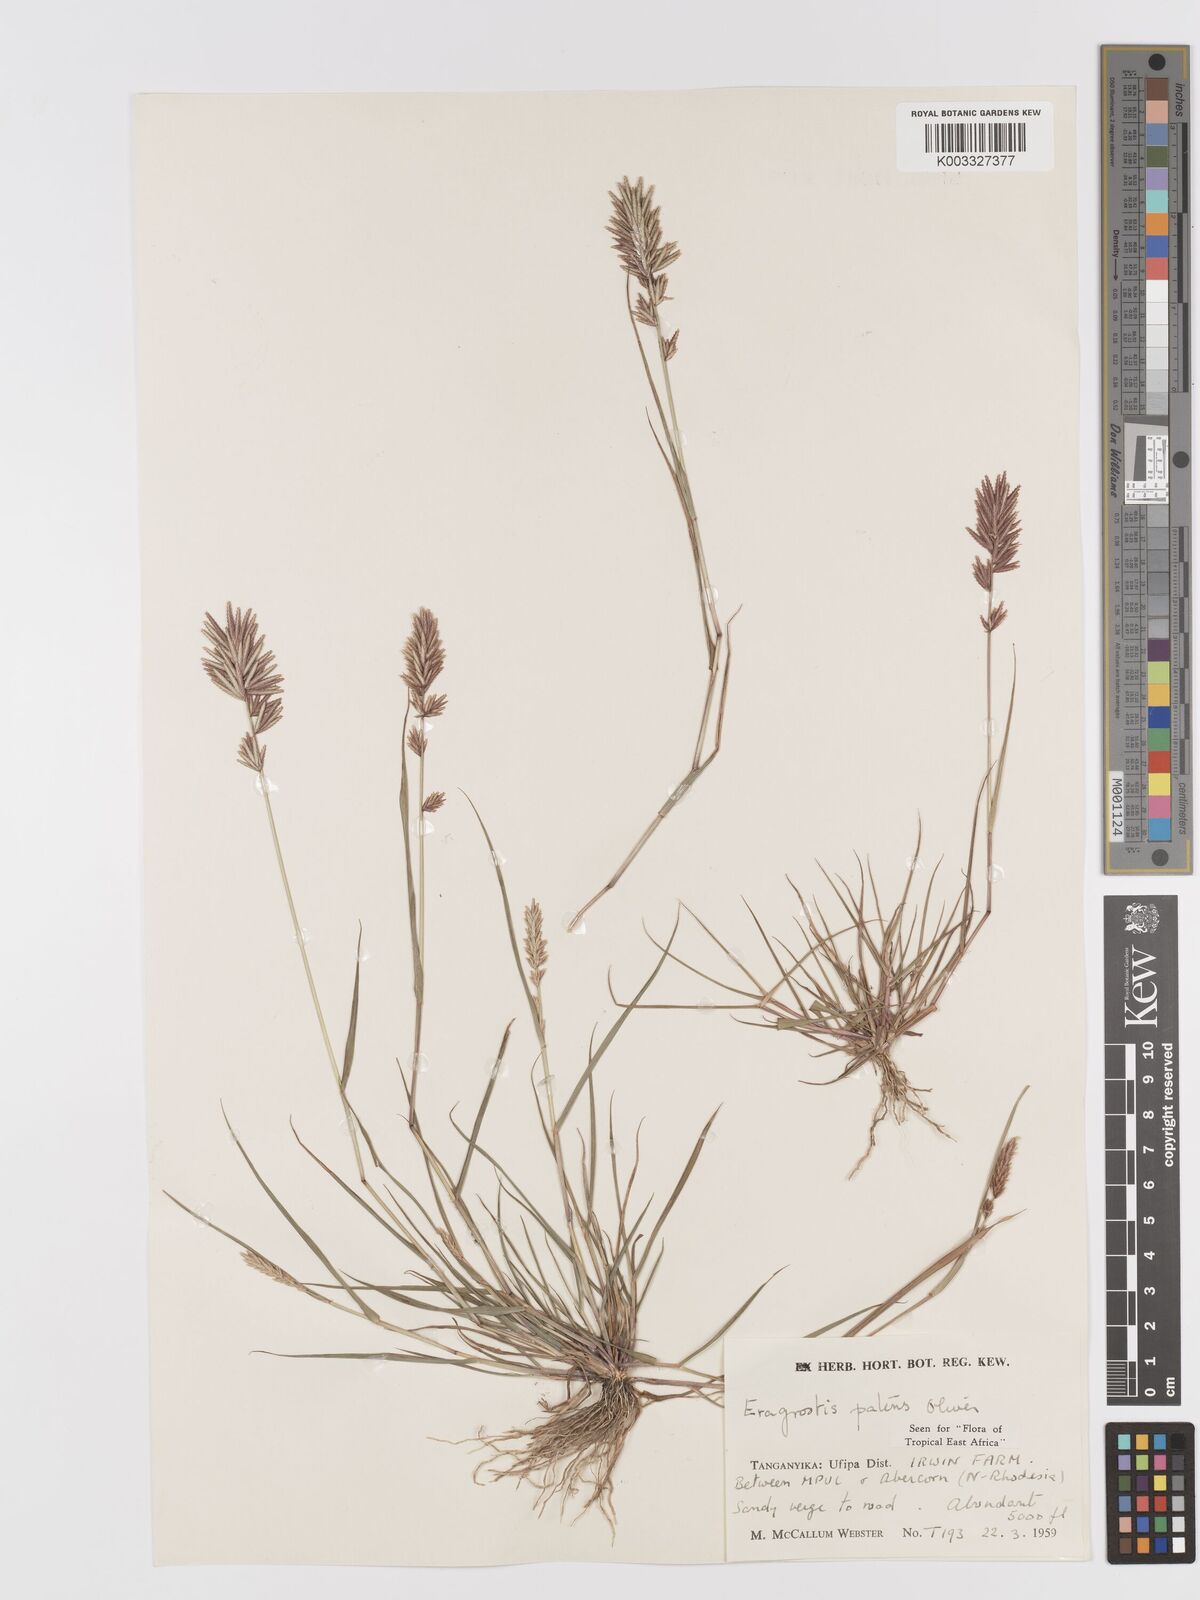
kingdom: Plantae
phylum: Tracheophyta
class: Liliopsida
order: Poales
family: Poaceae
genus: Eragrostis
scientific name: Eragrostis patens
